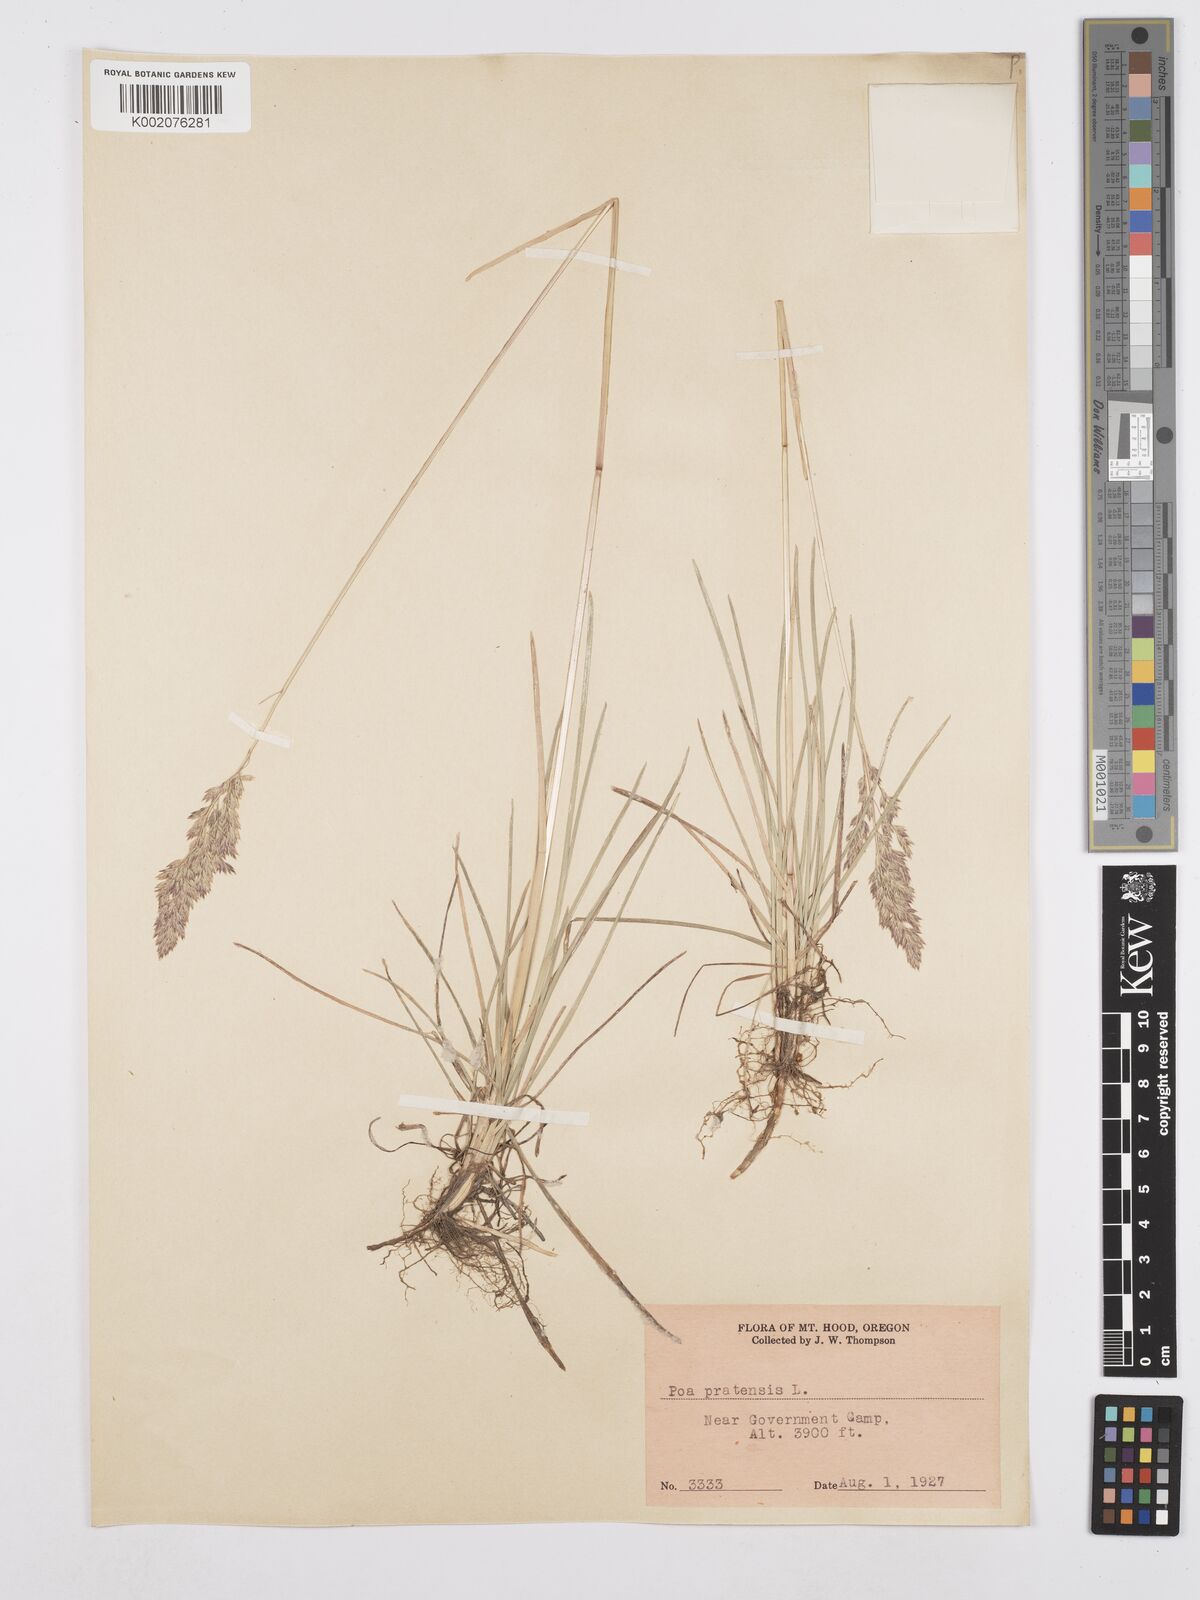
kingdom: Plantae
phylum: Tracheophyta
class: Liliopsida
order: Poales
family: Poaceae
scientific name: Poaceae
